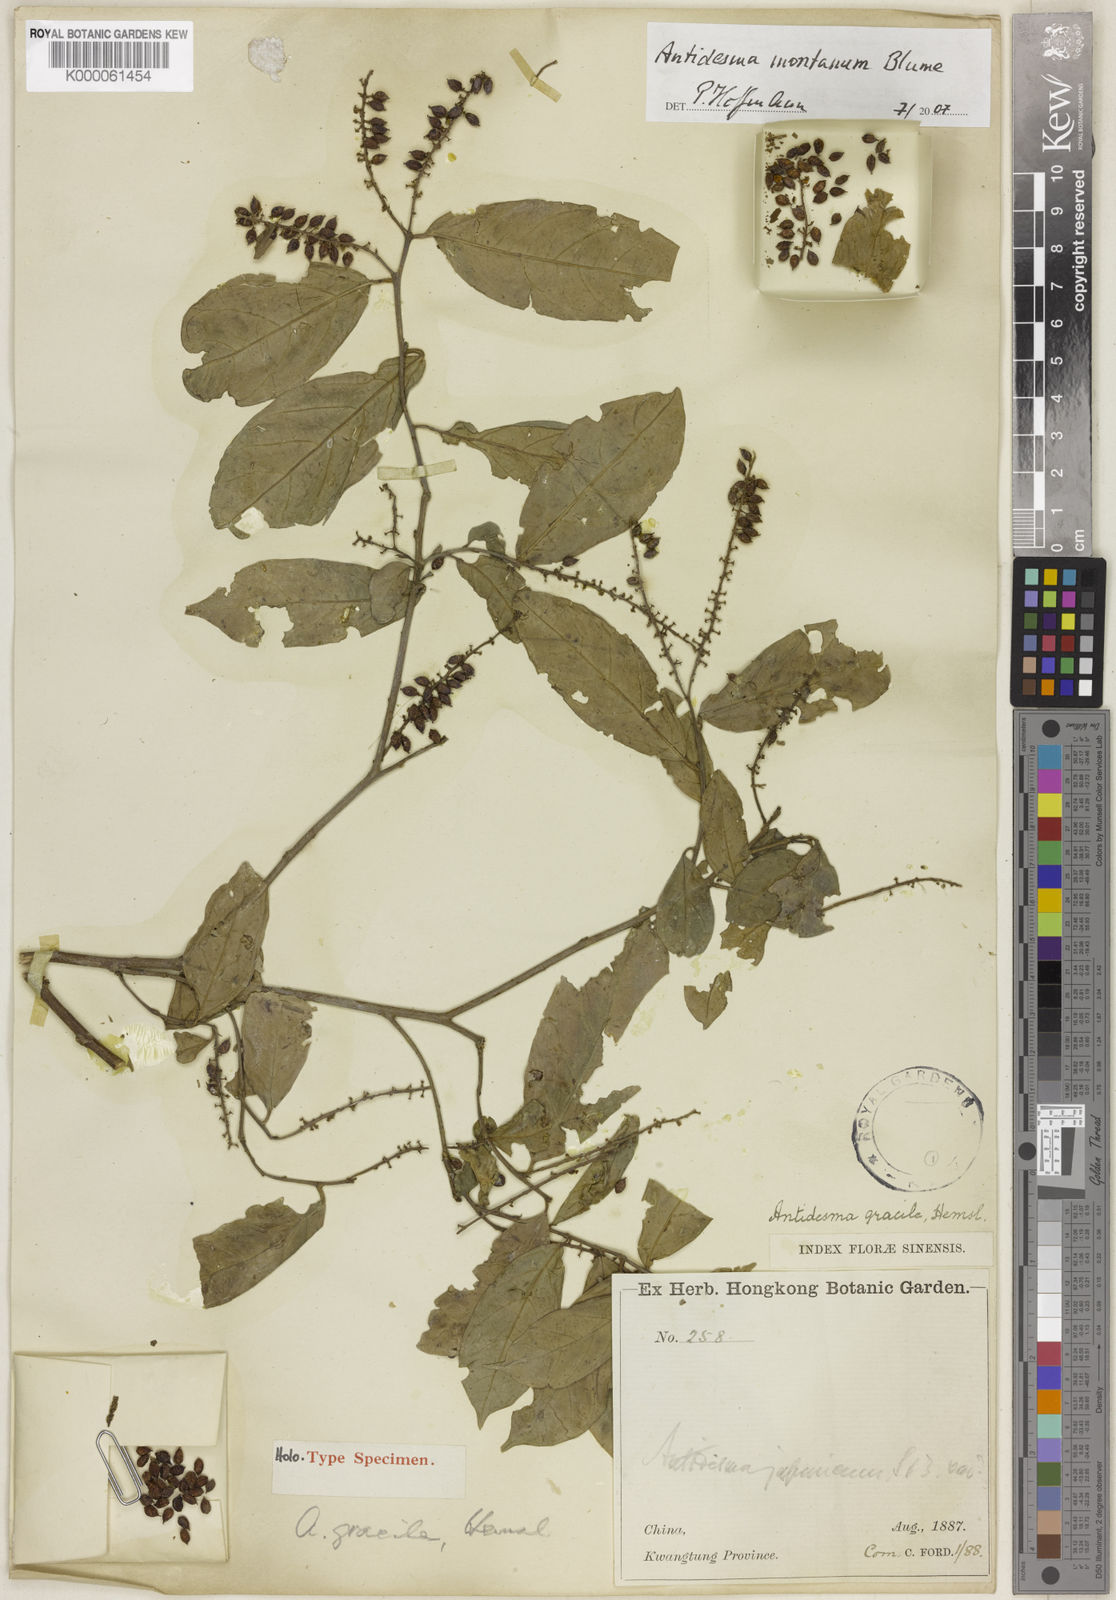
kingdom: Plantae
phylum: Tracheophyta
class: Magnoliopsida
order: Malpighiales
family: Phyllanthaceae
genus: Antidesma
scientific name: Antidesma montanum
